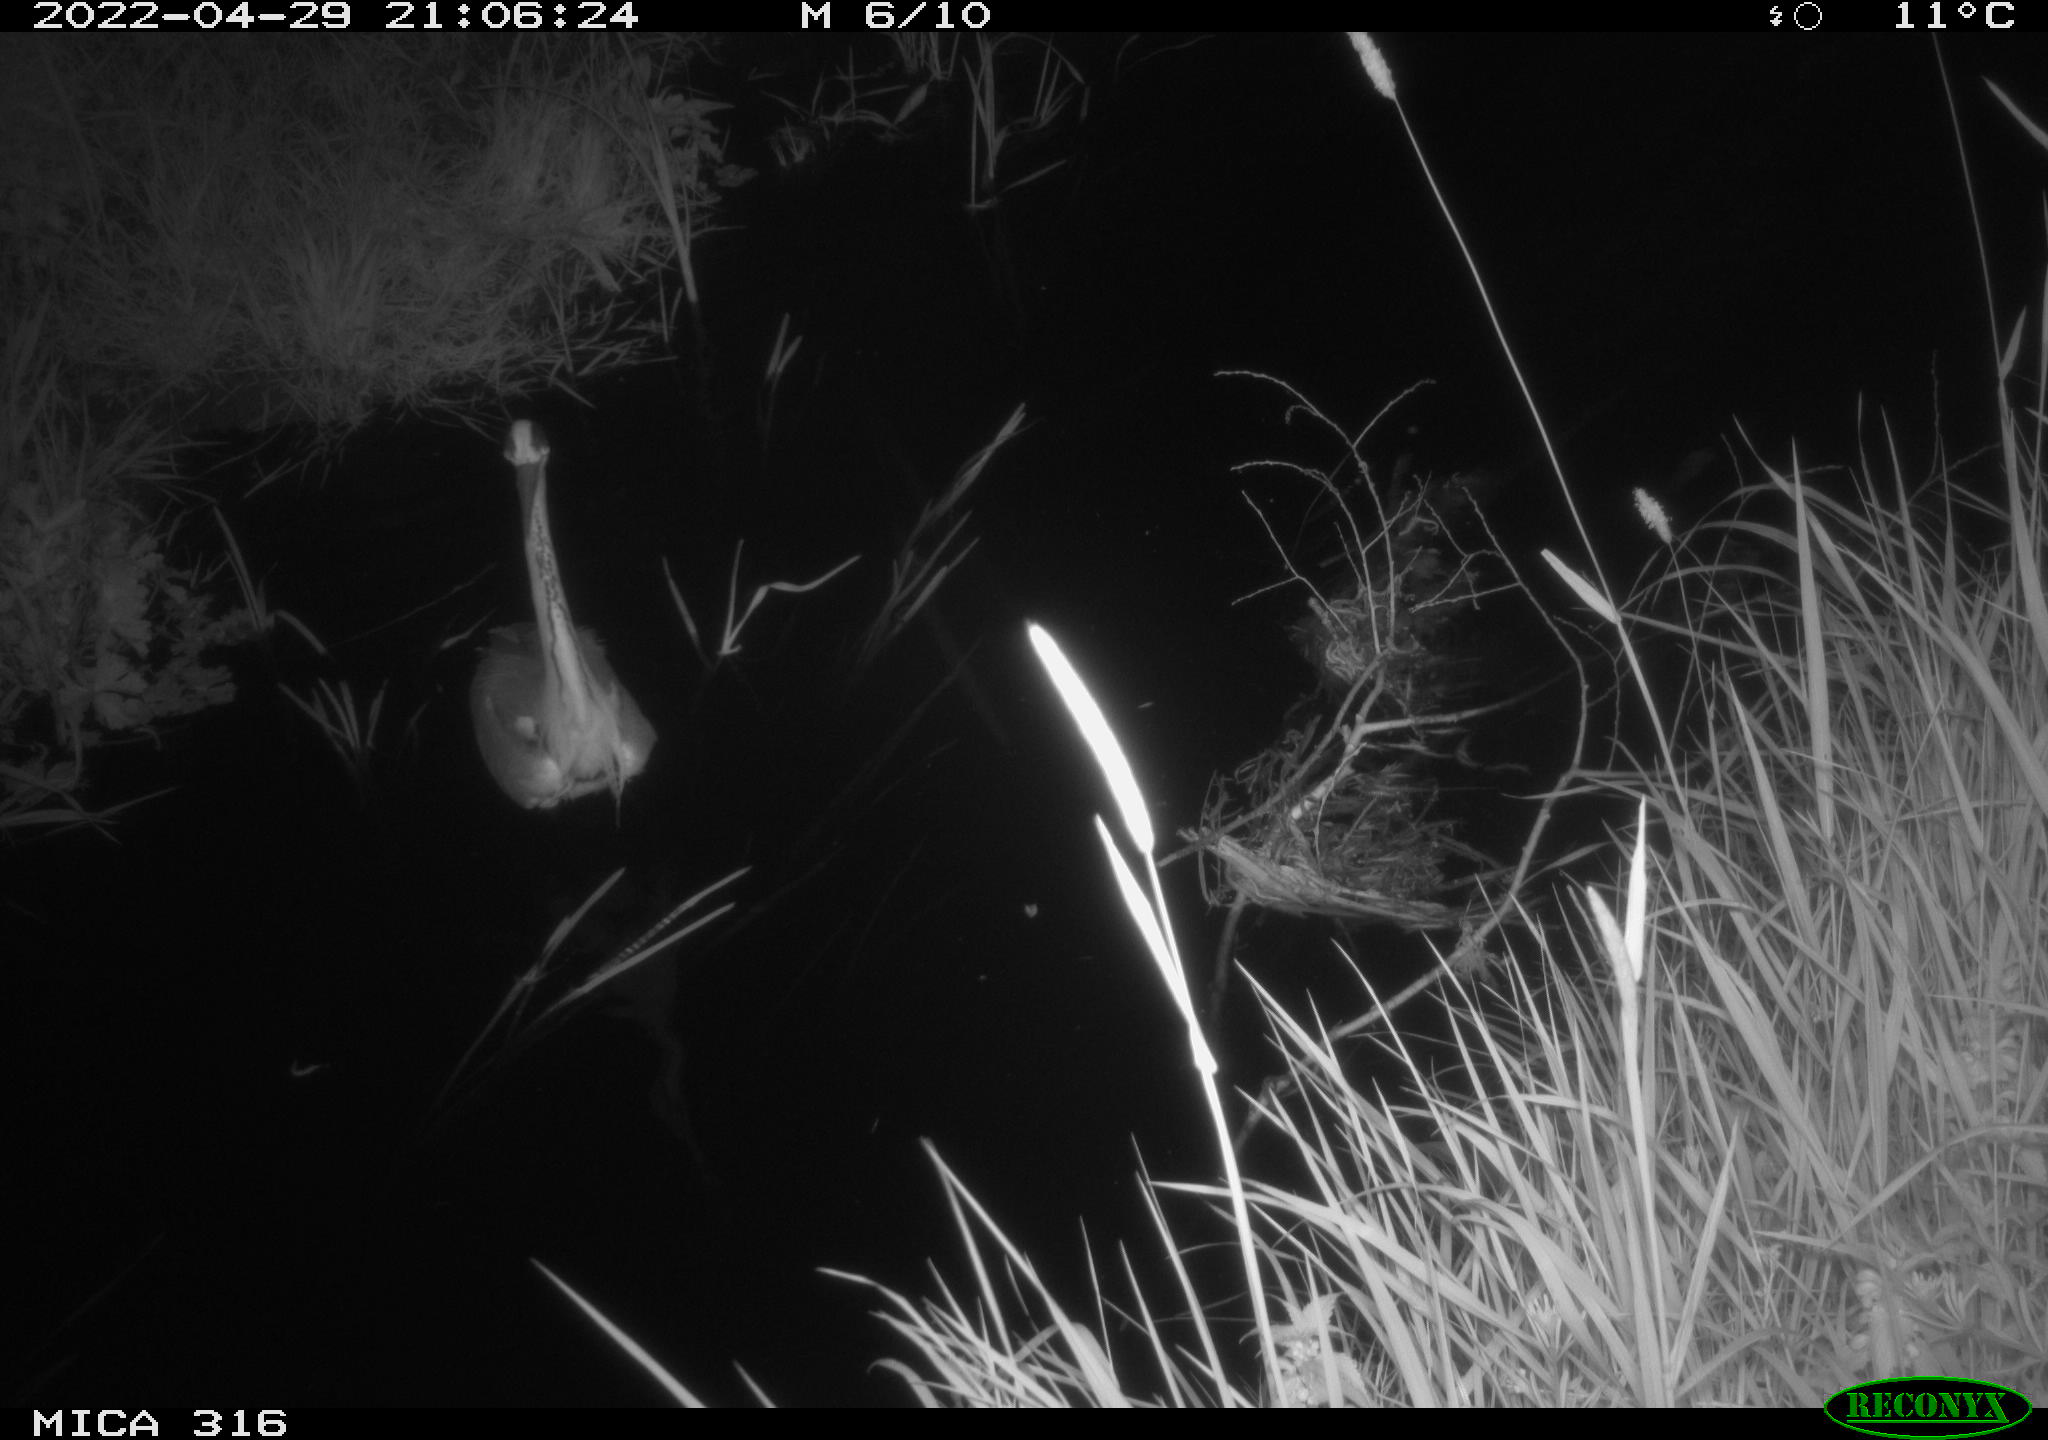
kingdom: Animalia
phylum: Chordata
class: Aves
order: Pelecaniformes
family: Ardeidae
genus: Ardea
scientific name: Ardea
